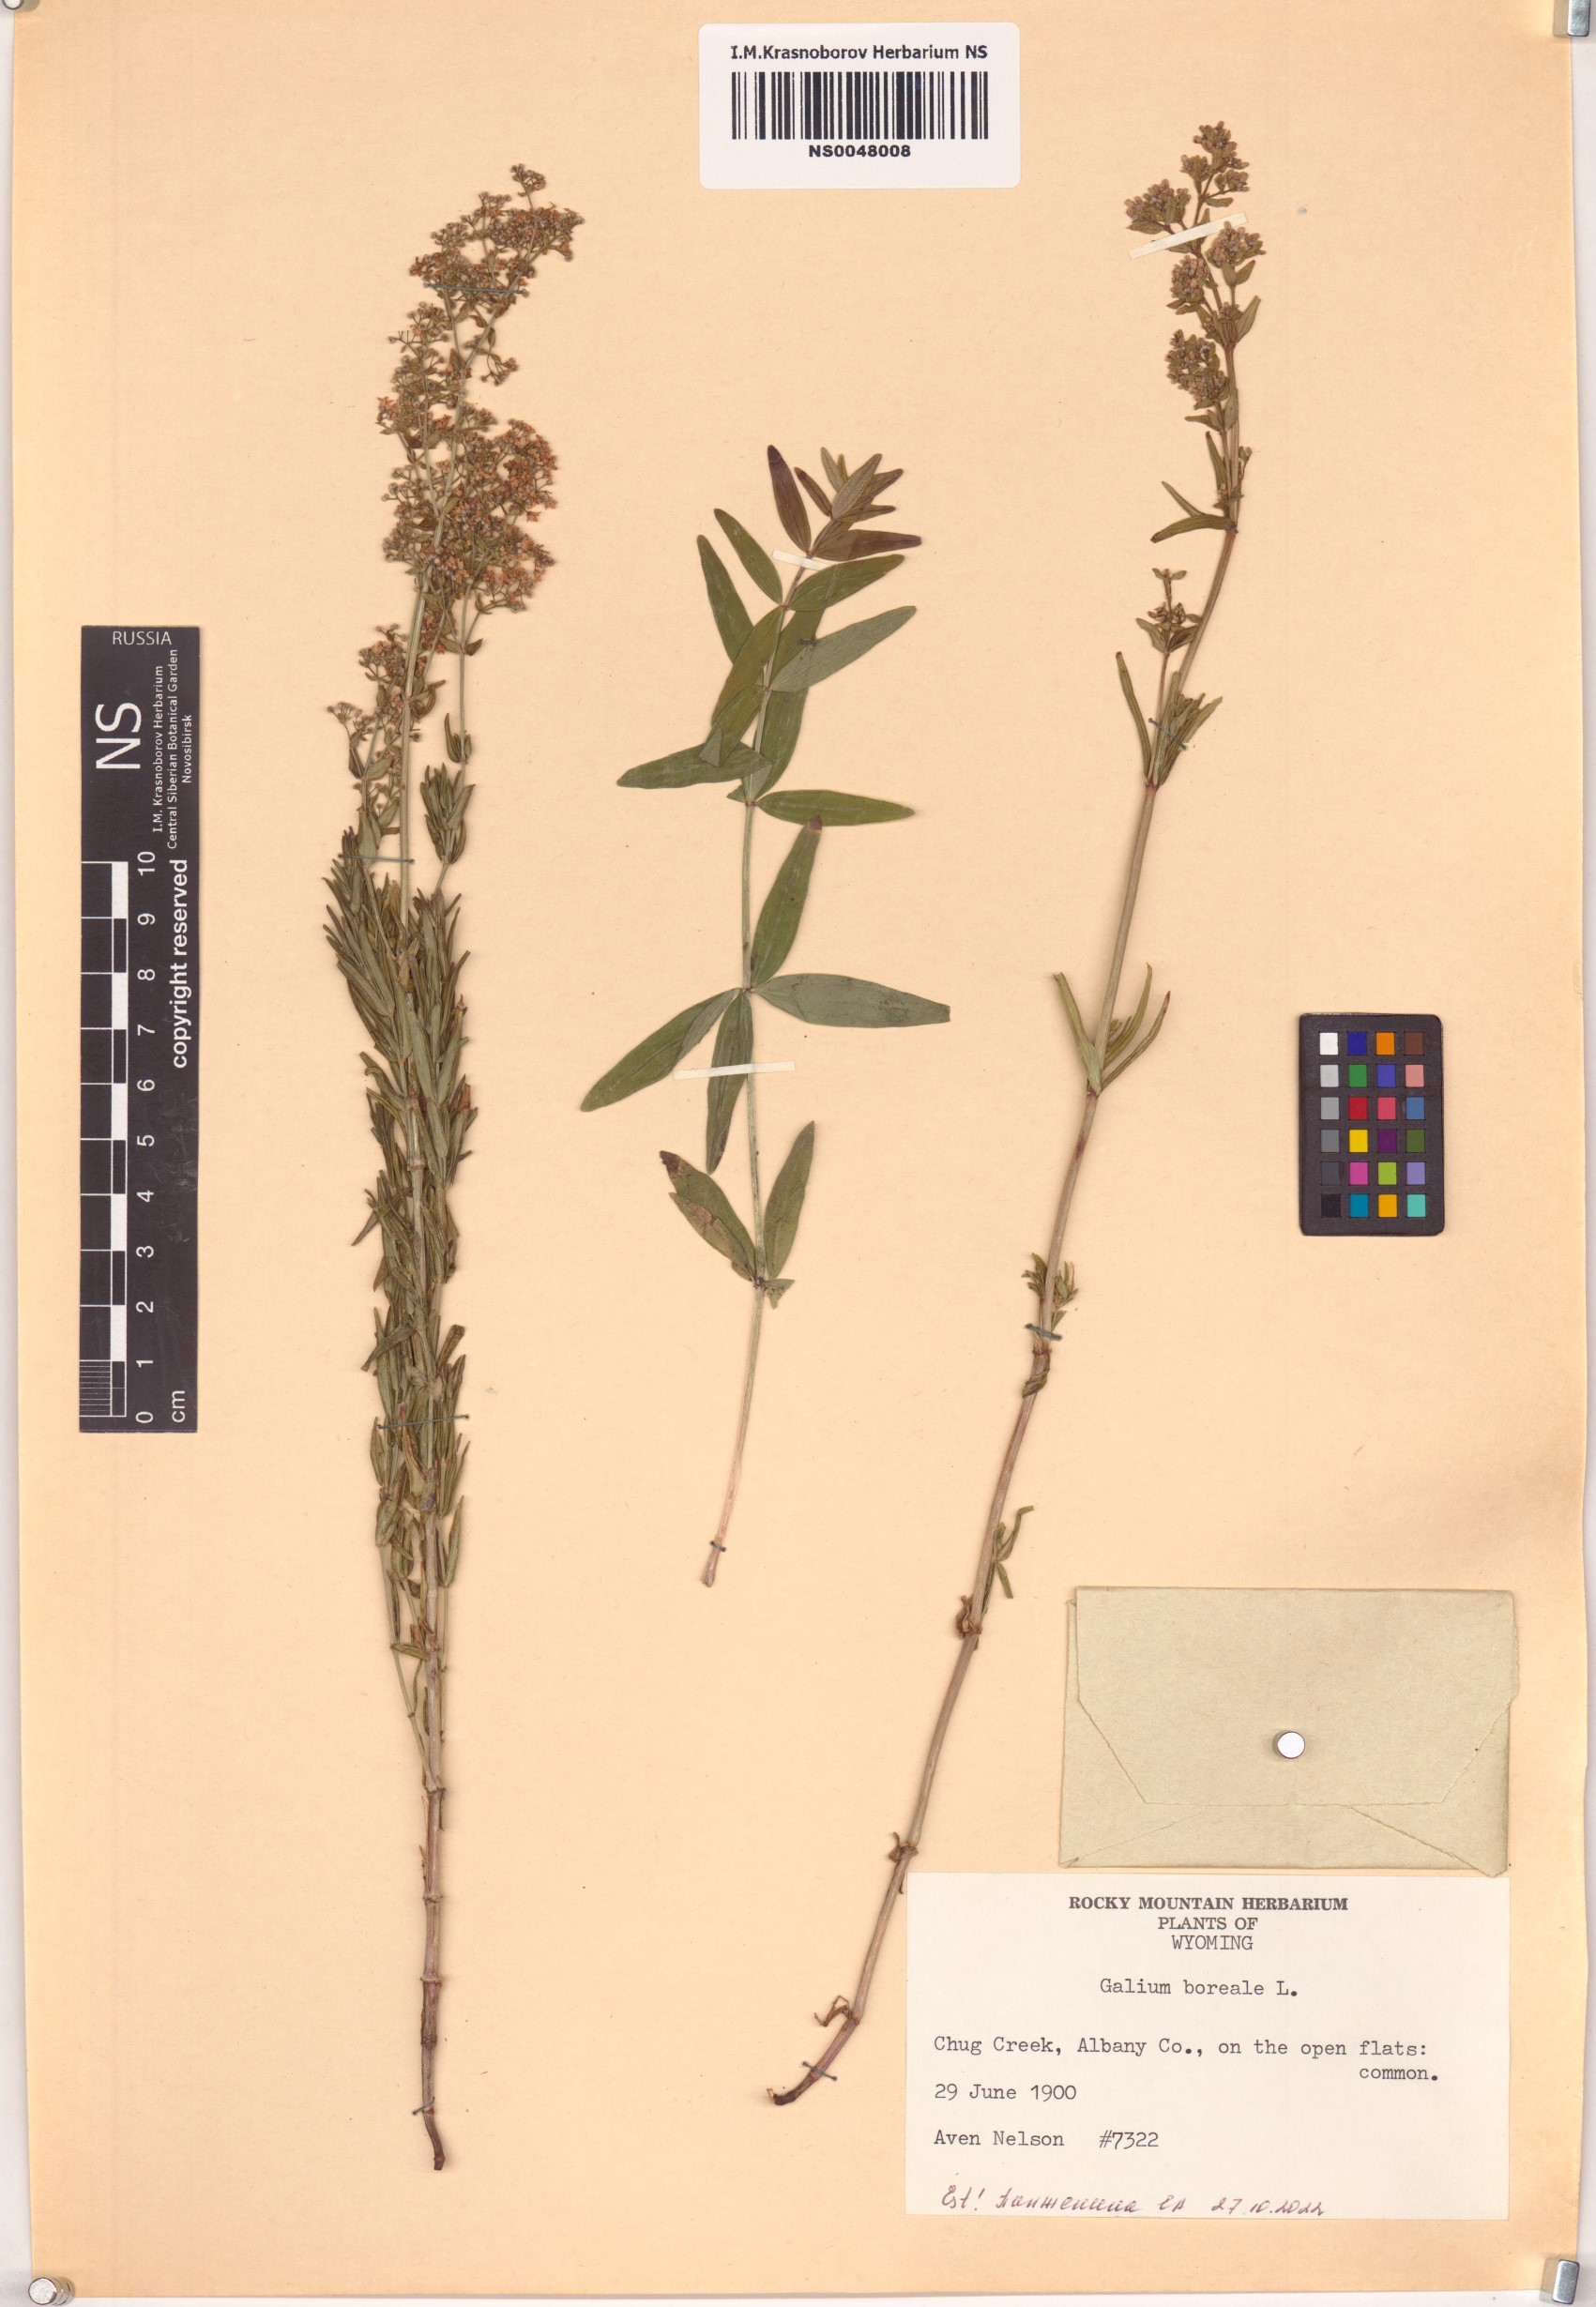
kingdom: Plantae
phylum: Tracheophyta
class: Magnoliopsida
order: Gentianales
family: Rubiaceae
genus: Galium
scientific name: Galium boreale
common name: Northern bedstraw
